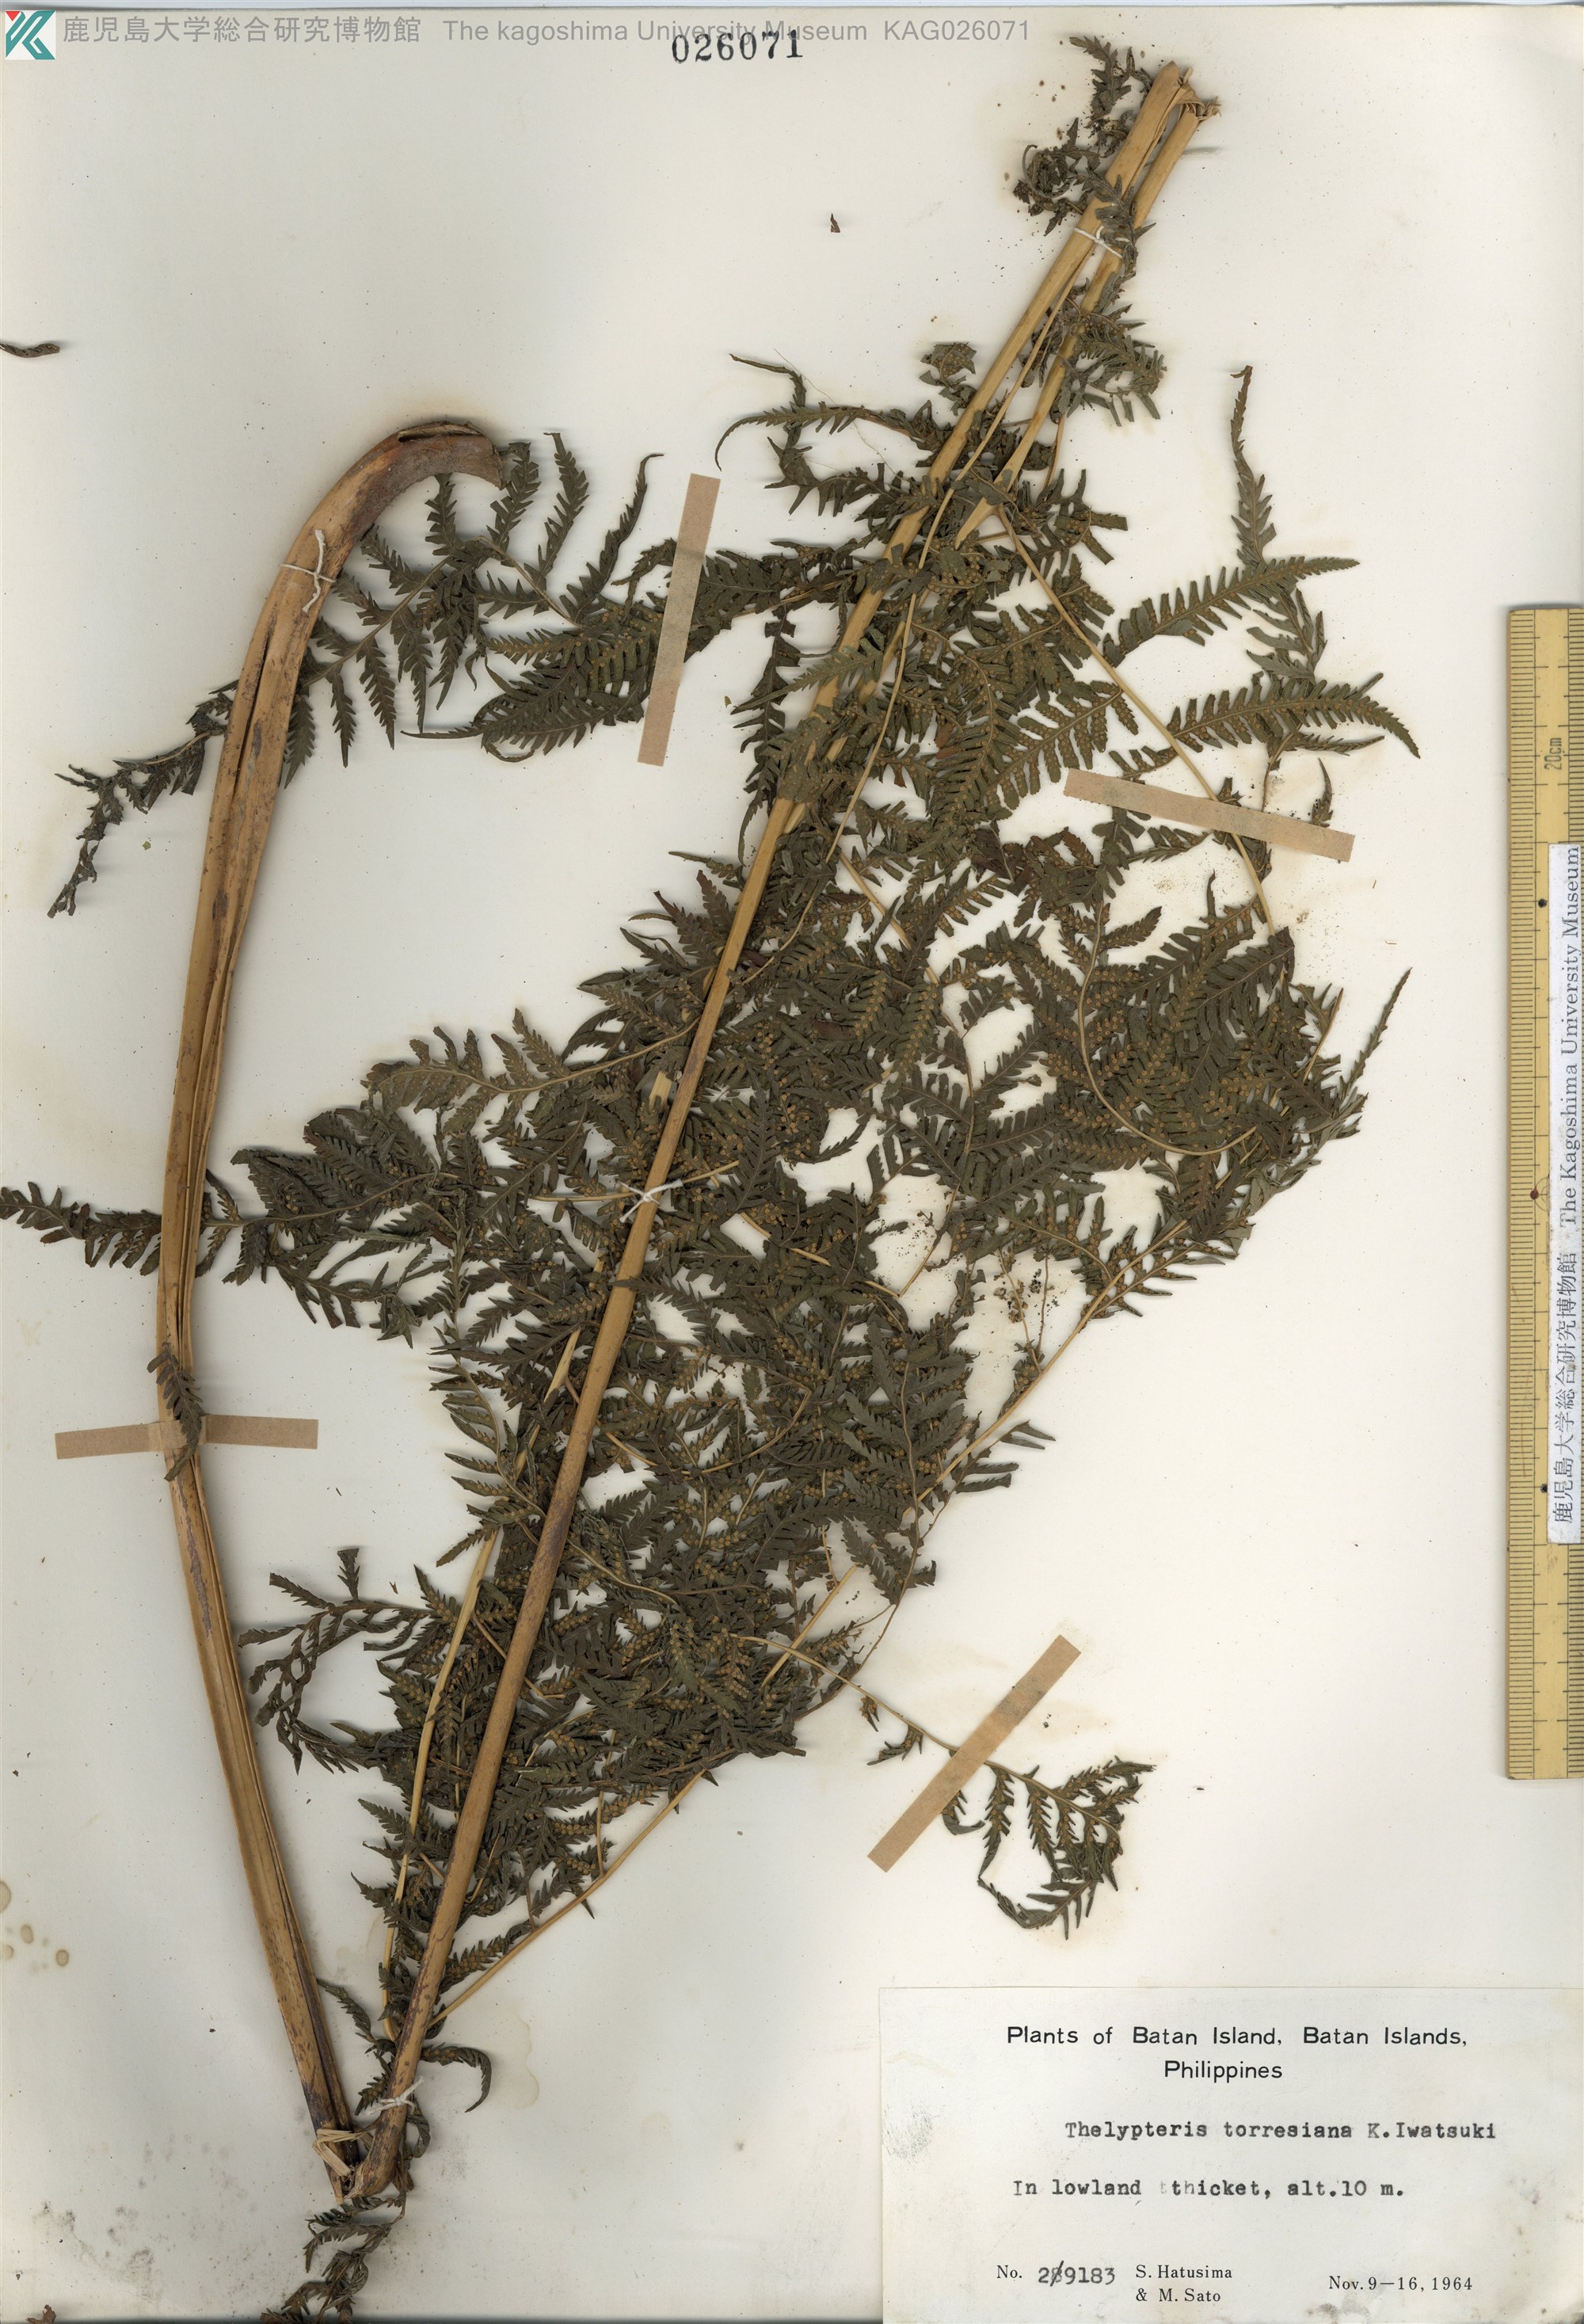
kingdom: Plantae
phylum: Tracheophyta
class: Polypodiopsida
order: Polypodiales
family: Thelypteridaceae
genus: Macrothelypteris
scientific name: Macrothelypteris oligophlebia
